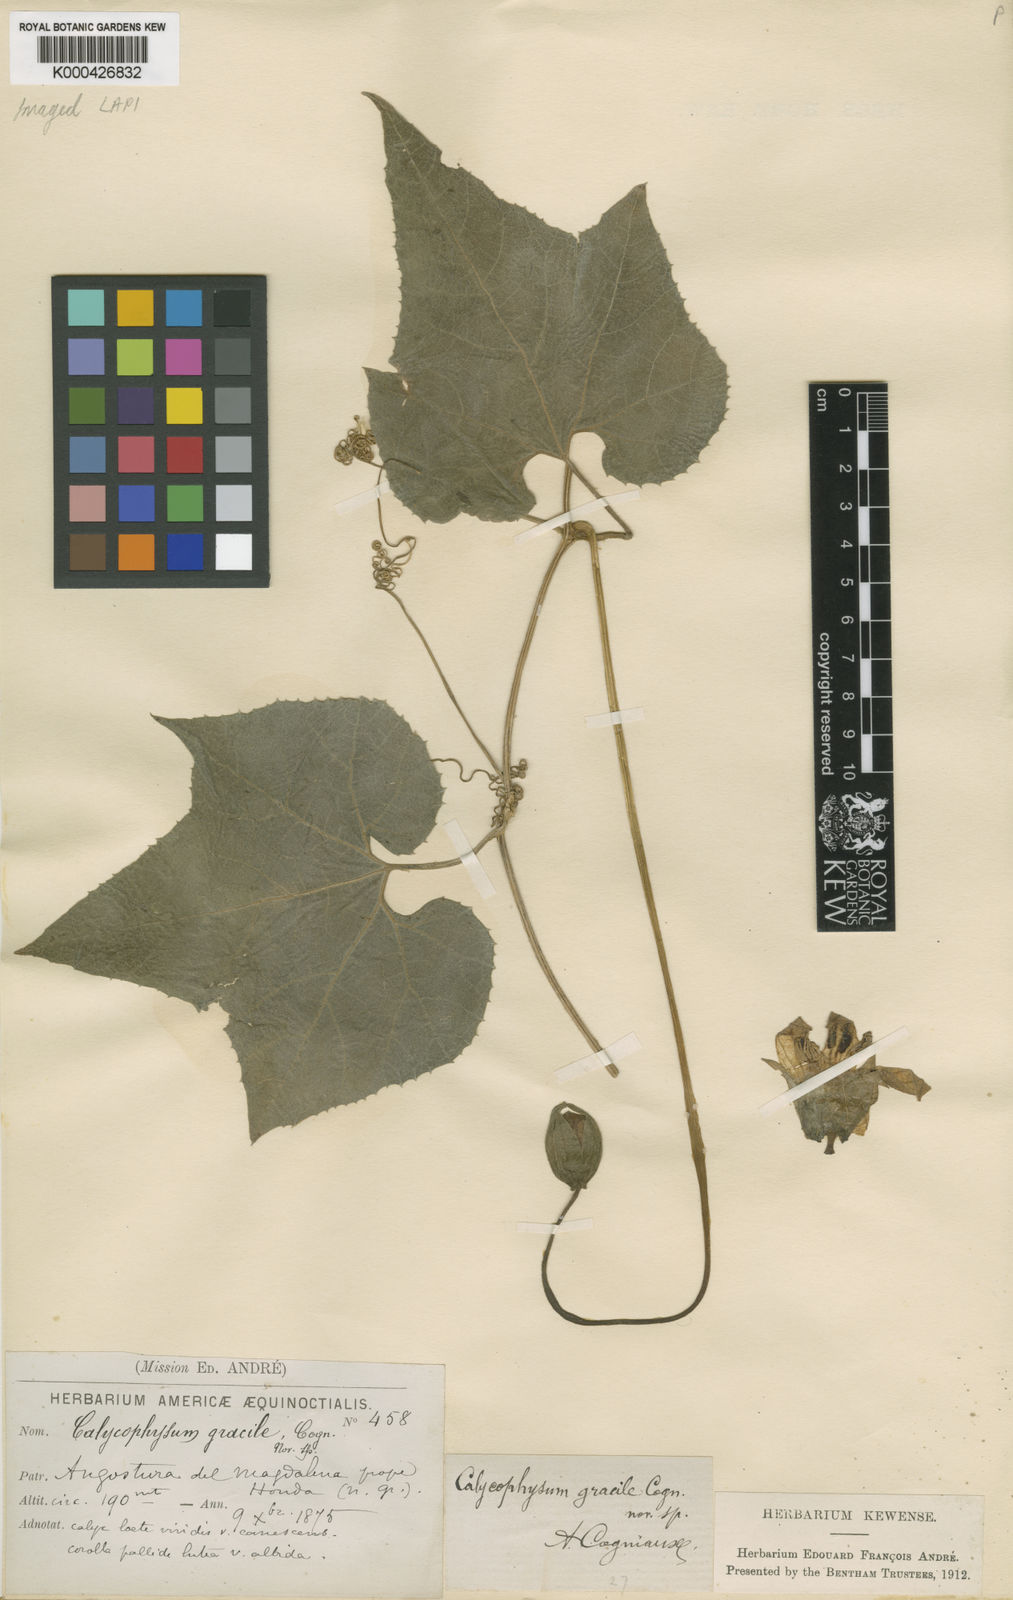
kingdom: Plantae
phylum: Tracheophyta
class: Magnoliopsida
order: Cucurbitales
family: Cucurbitaceae
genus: Calycophysum
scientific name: Calycophysum gracile
